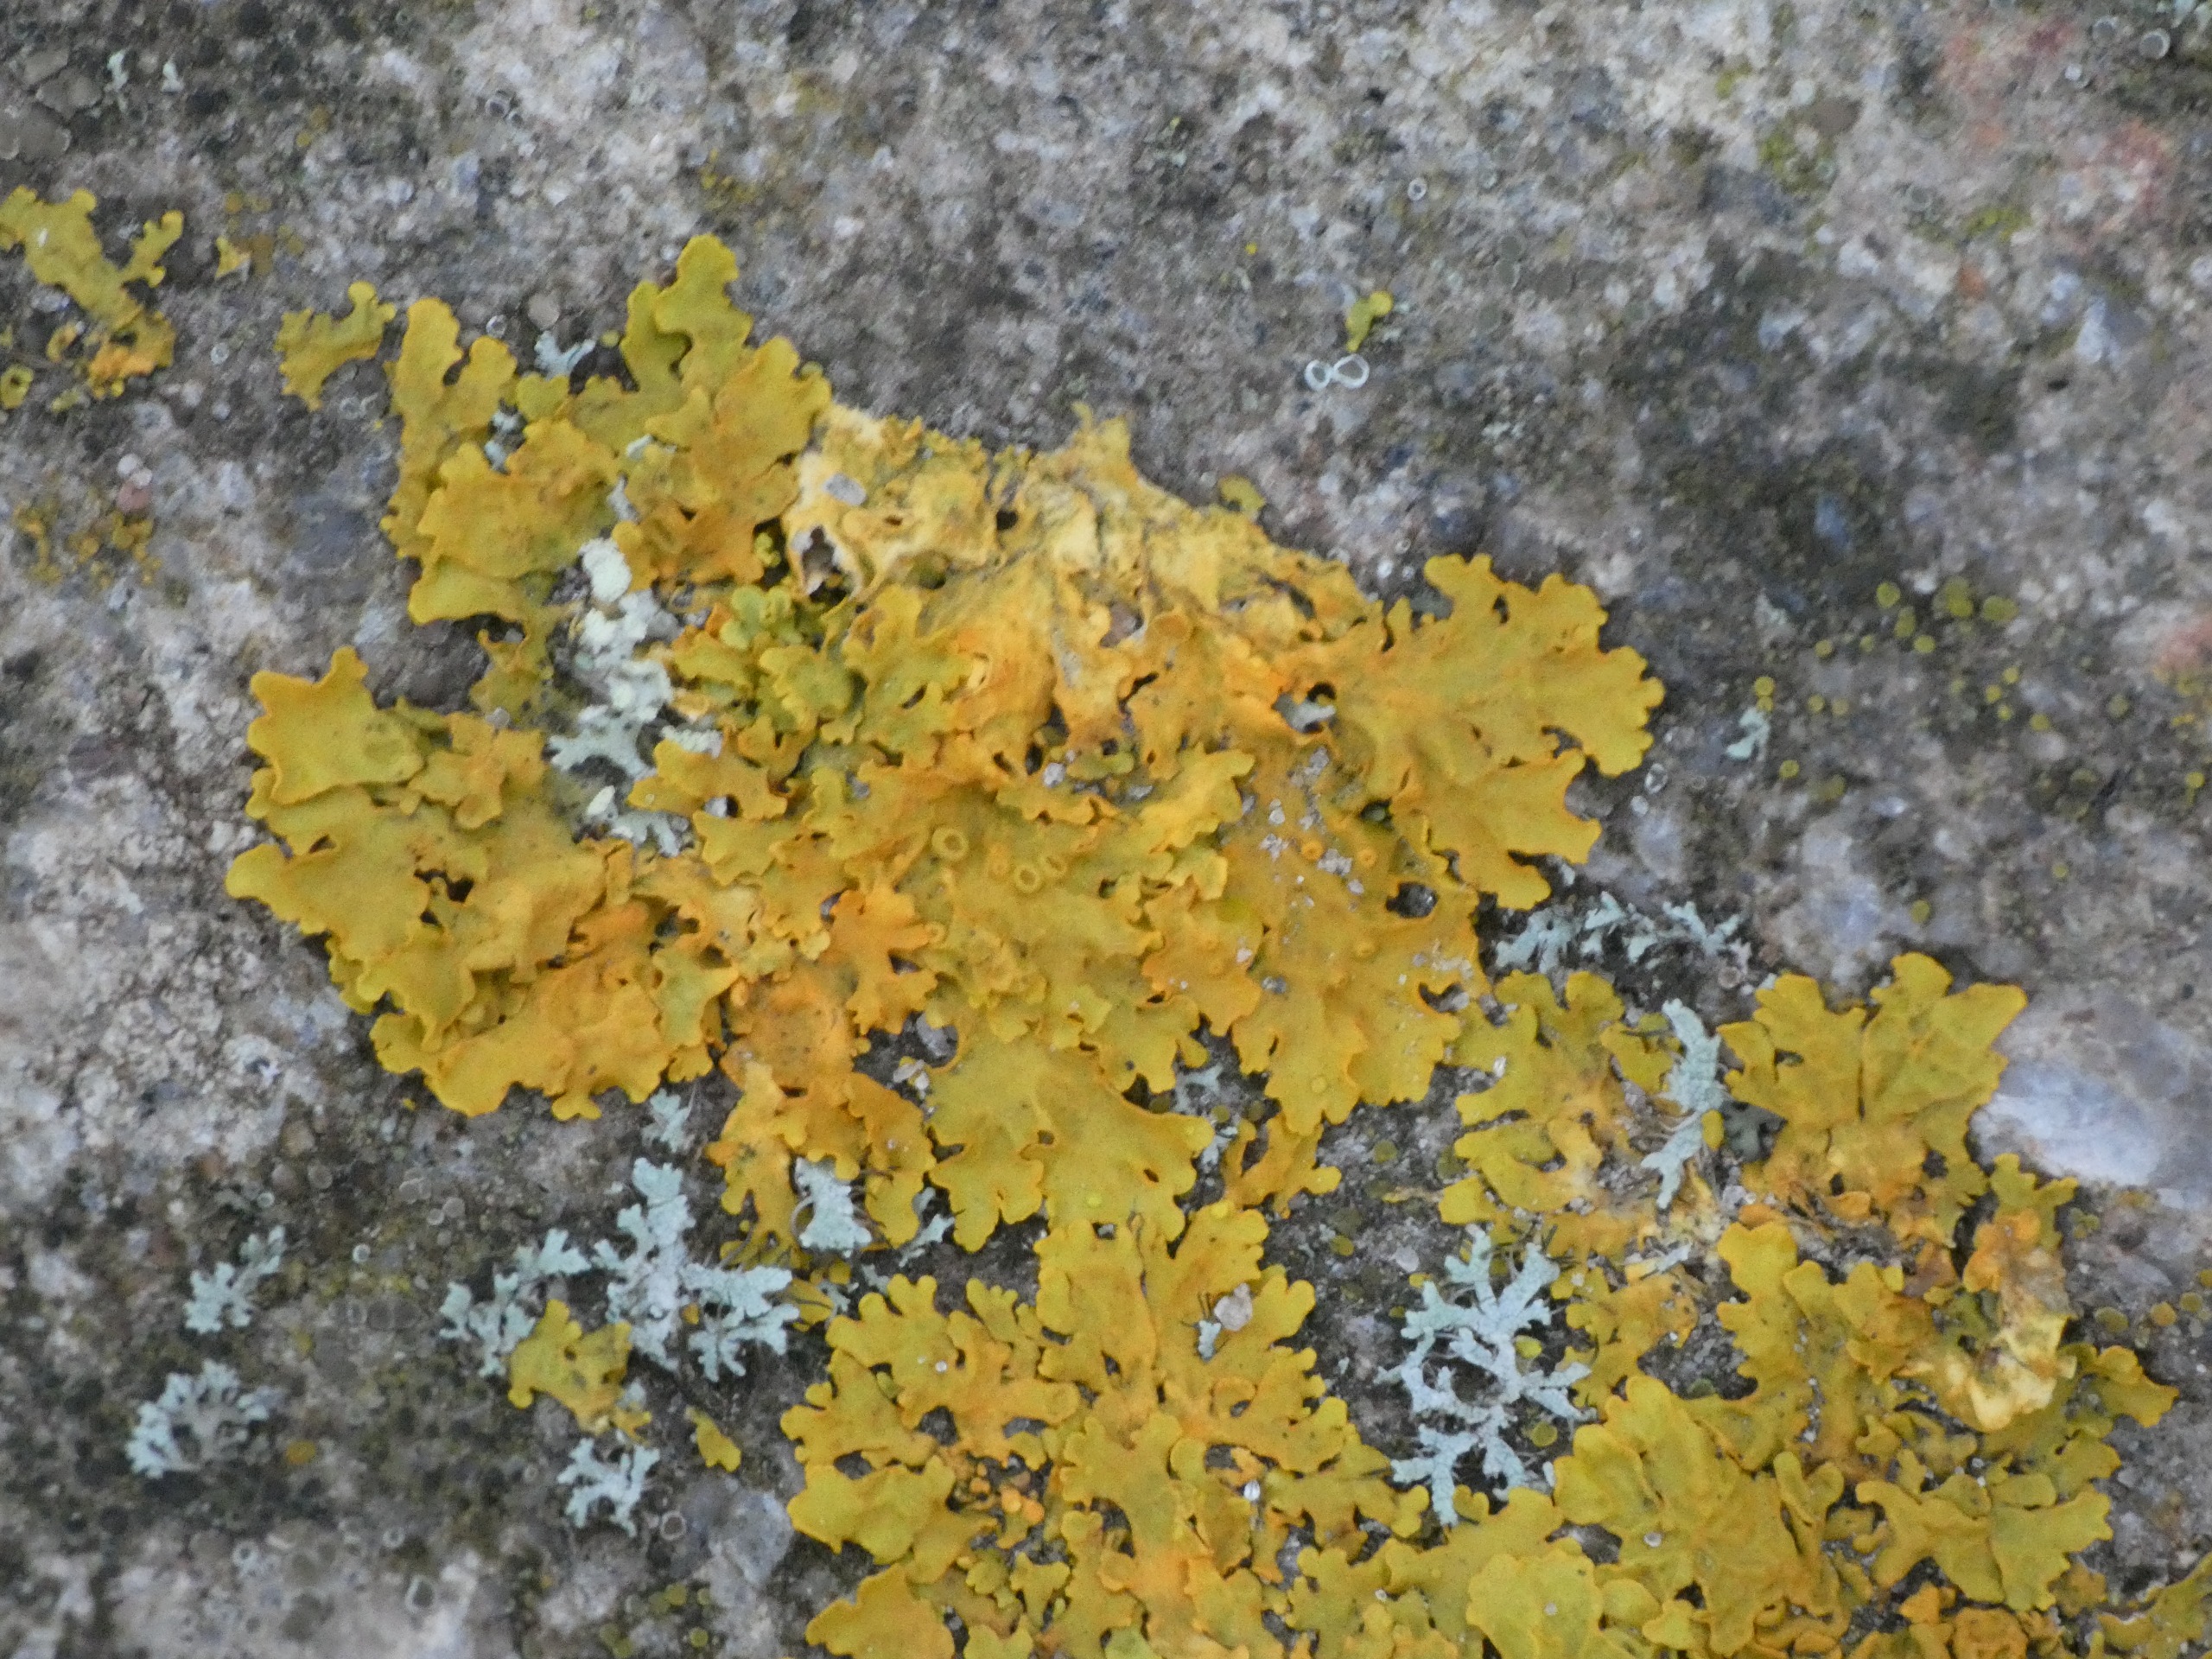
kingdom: Fungi
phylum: Ascomycota
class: Lecanoromycetes
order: Teloschistales
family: Teloschistaceae
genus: Xanthoria
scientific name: Xanthoria parietina
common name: Almindelig væggelav
